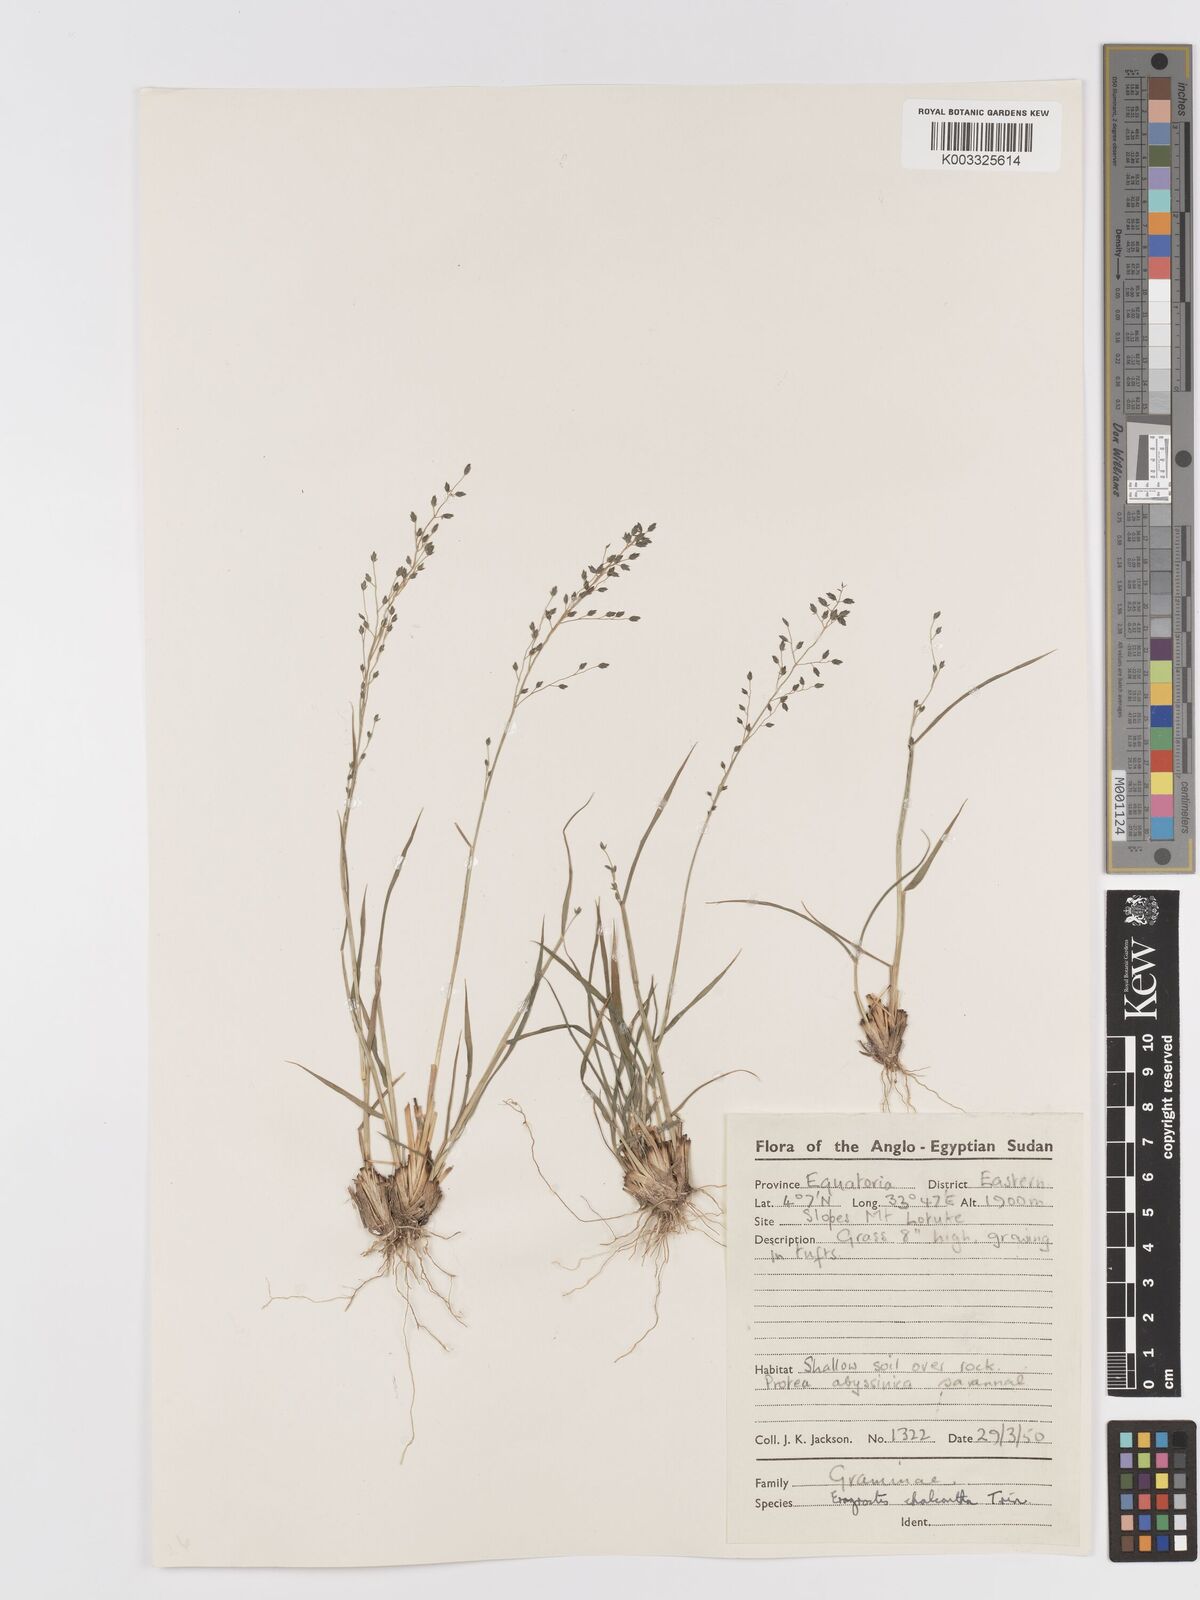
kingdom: Plantae
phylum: Tracheophyta
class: Liliopsida
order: Poales
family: Poaceae
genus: Eragrostis
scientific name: Eragrostis racemosa
